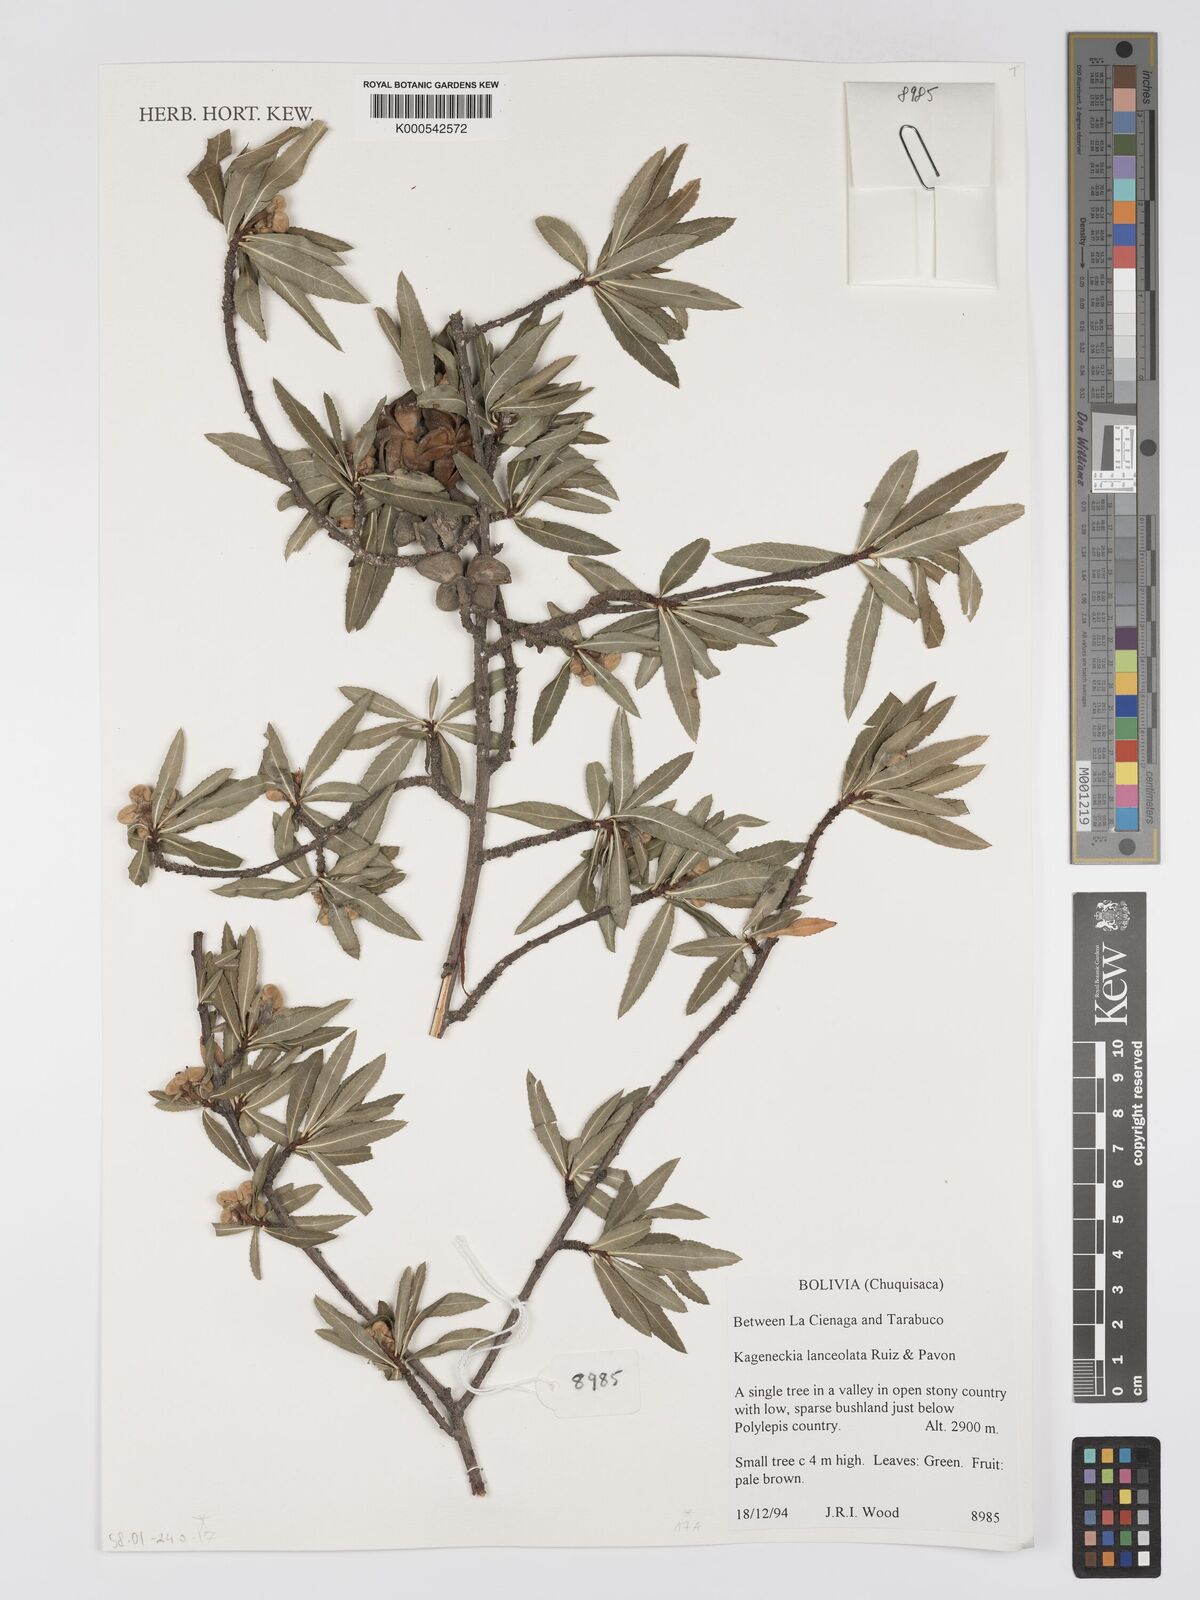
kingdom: Plantae
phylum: Tracheophyta
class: Magnoliopsida
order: Rosales
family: Rosaceae
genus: Kageneckia
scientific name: Kageneckia lanceolata
